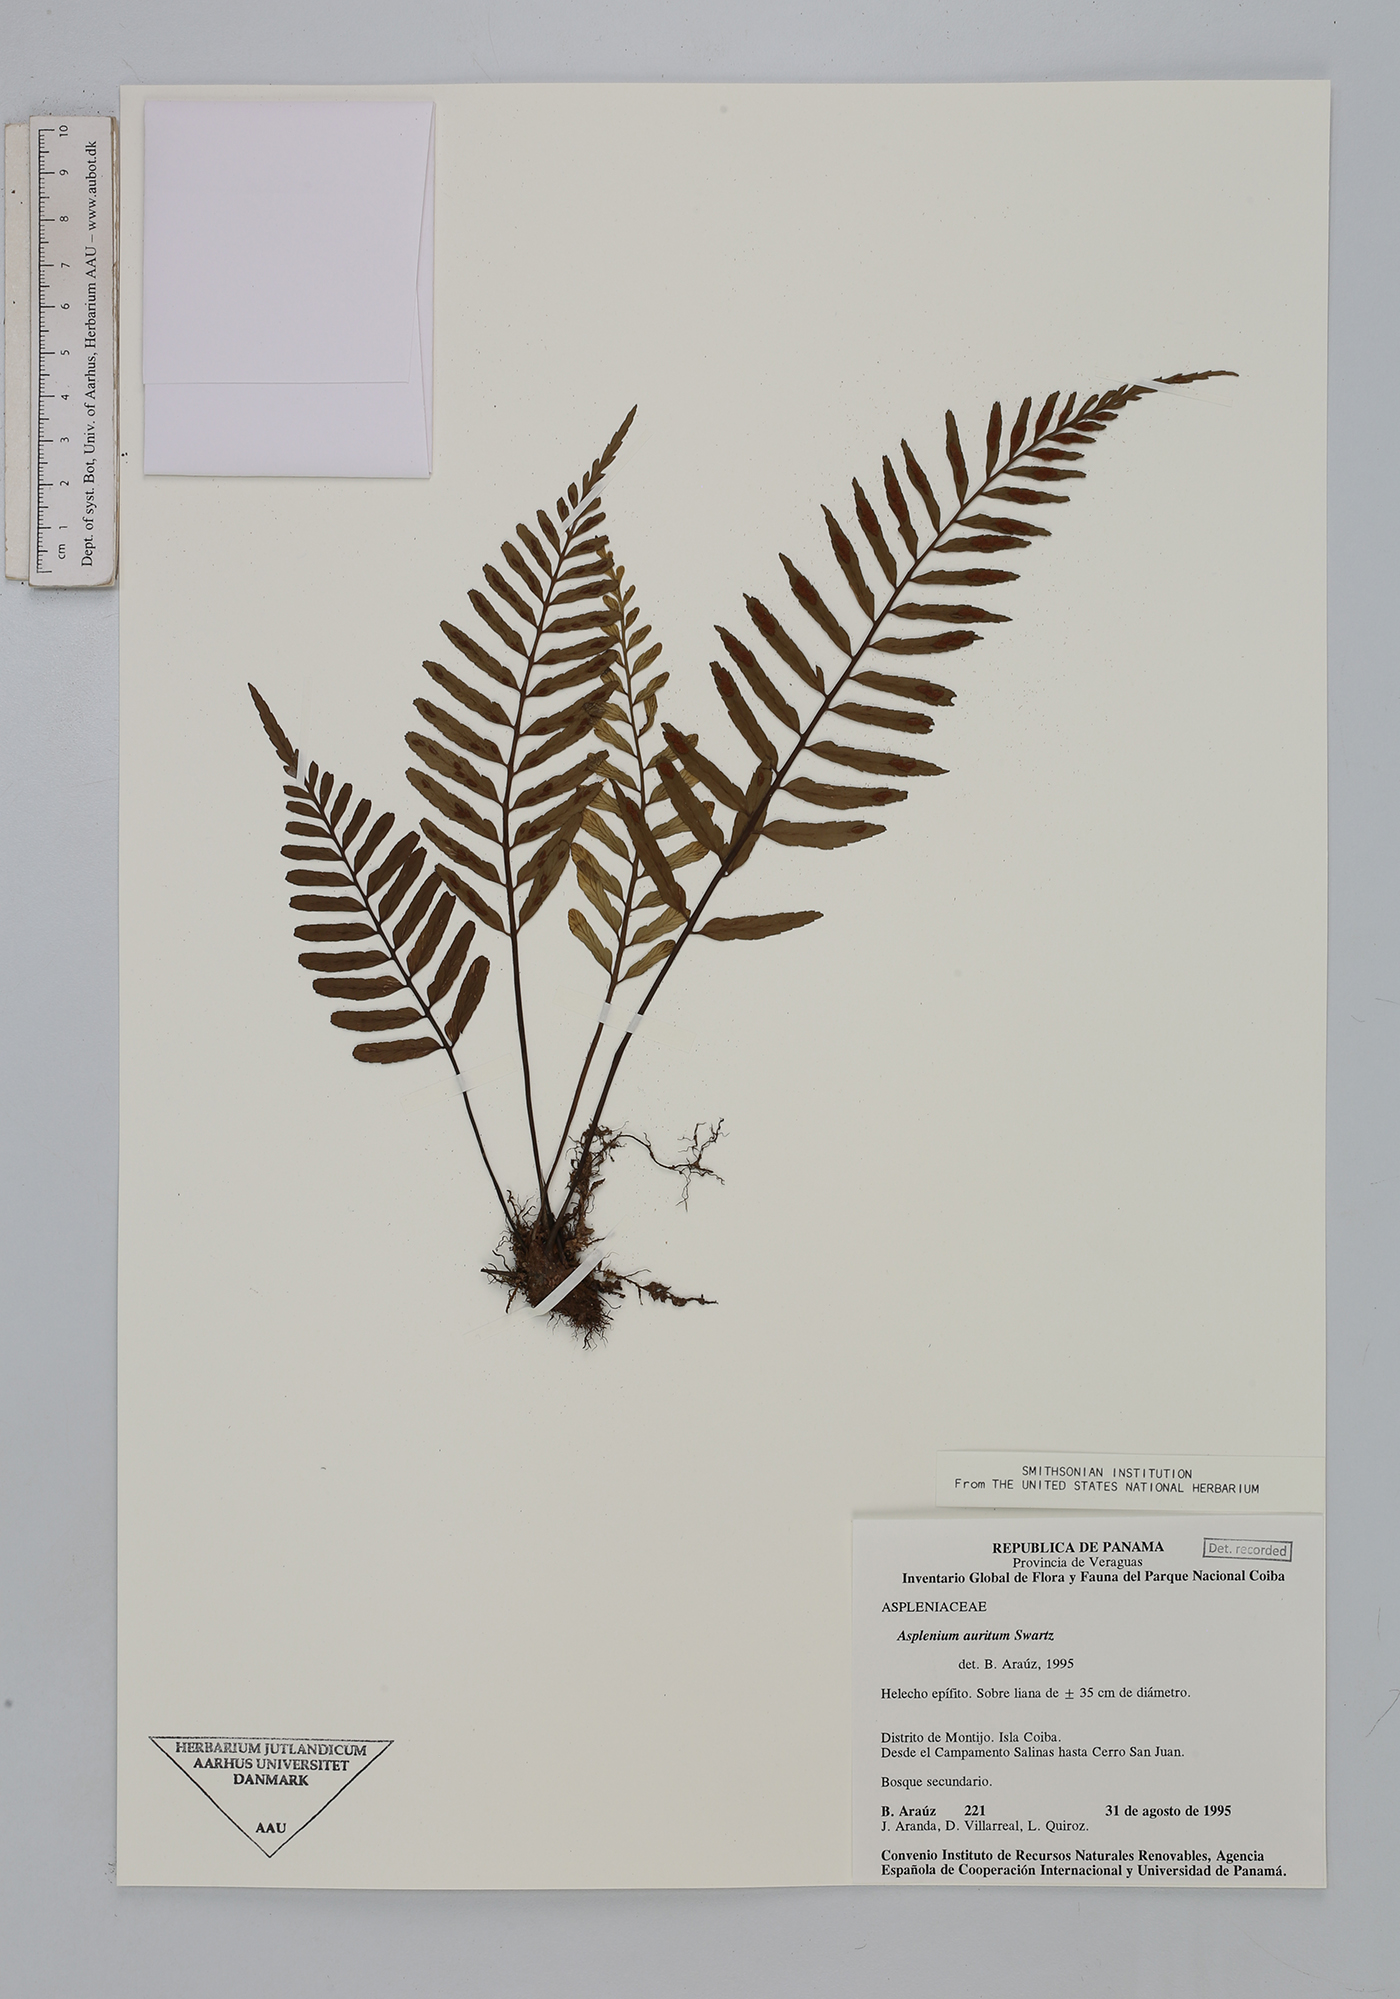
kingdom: Plantae
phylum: Tracheophyta
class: Polypodiopsida
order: Polypodiales
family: Aspleniaceae
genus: Asplenium
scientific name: Asplenium auritum
